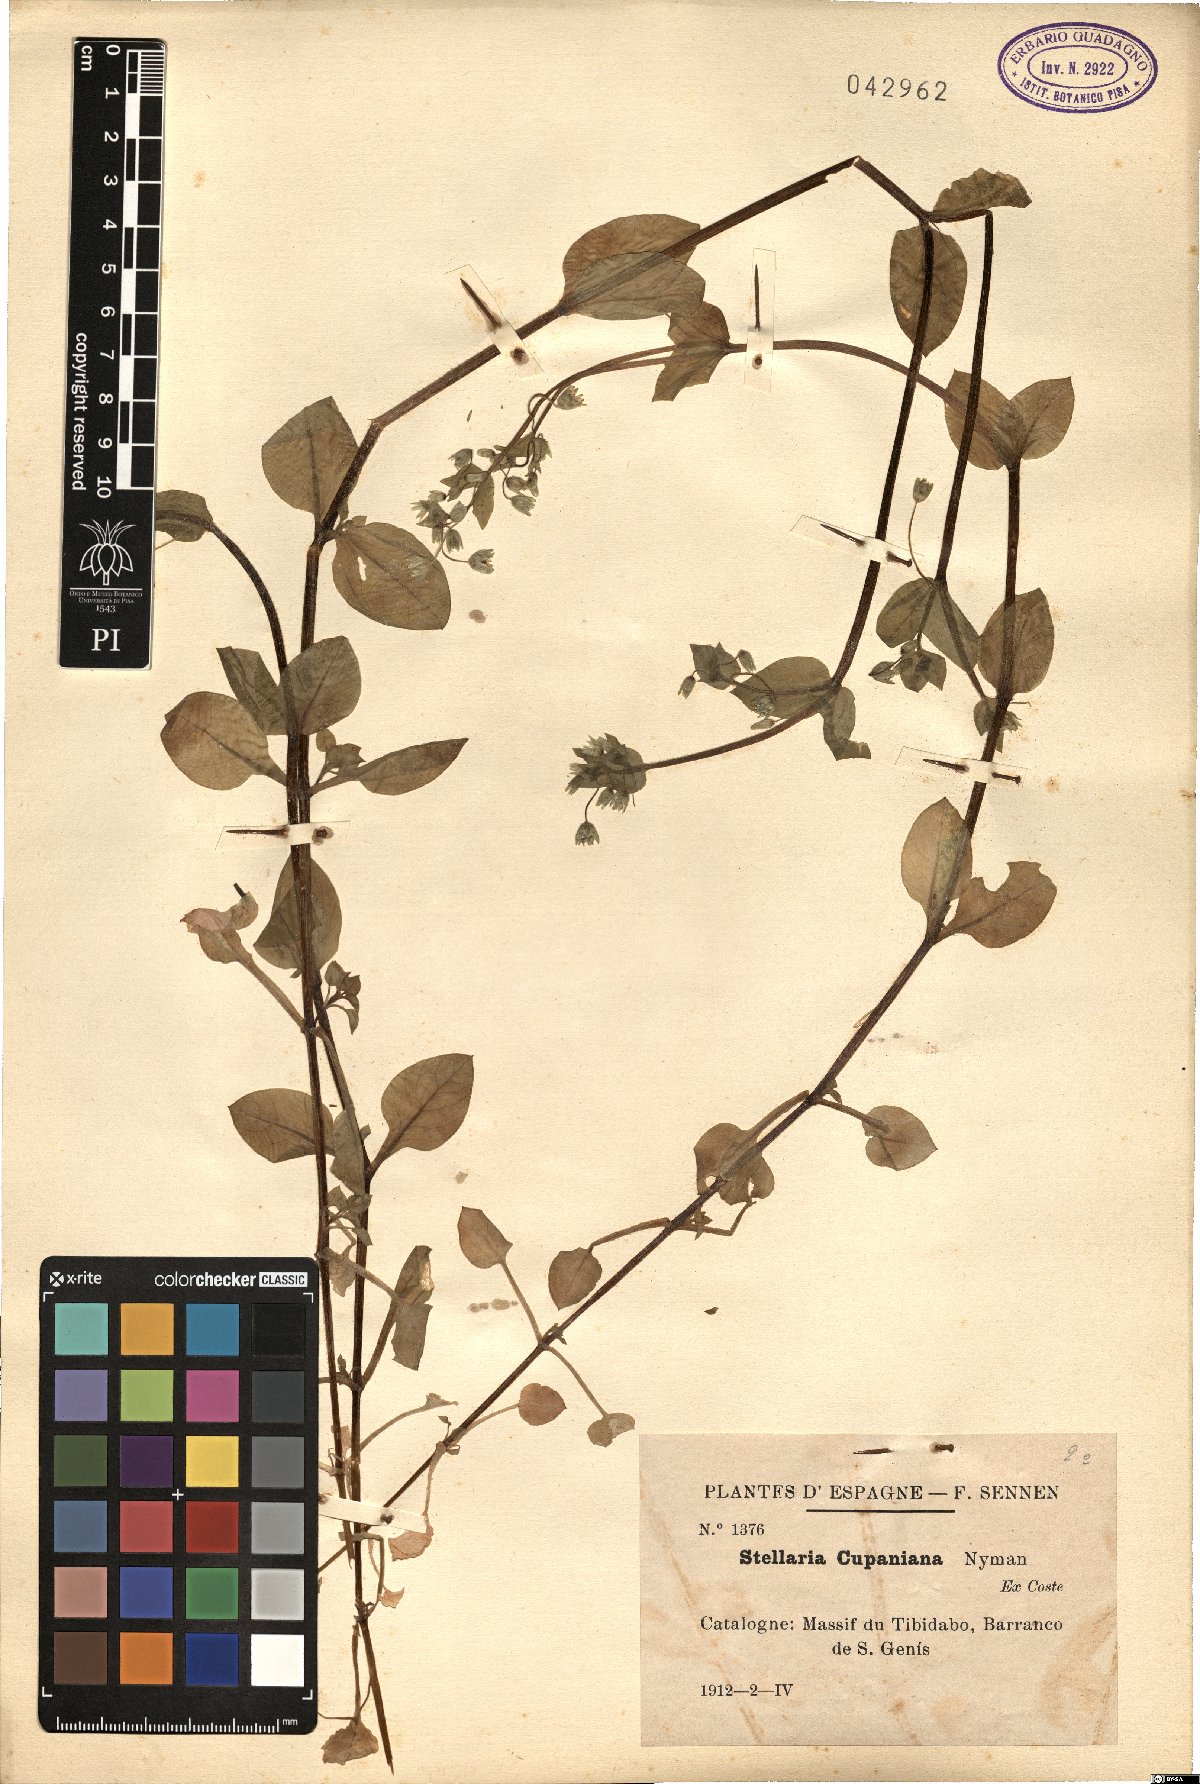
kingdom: Plantae
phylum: Tracheophyta
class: Magnoliopsida
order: Caryophyllales
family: Caryophyllaceae
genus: Stellaria
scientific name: Stellaria cupaniana
